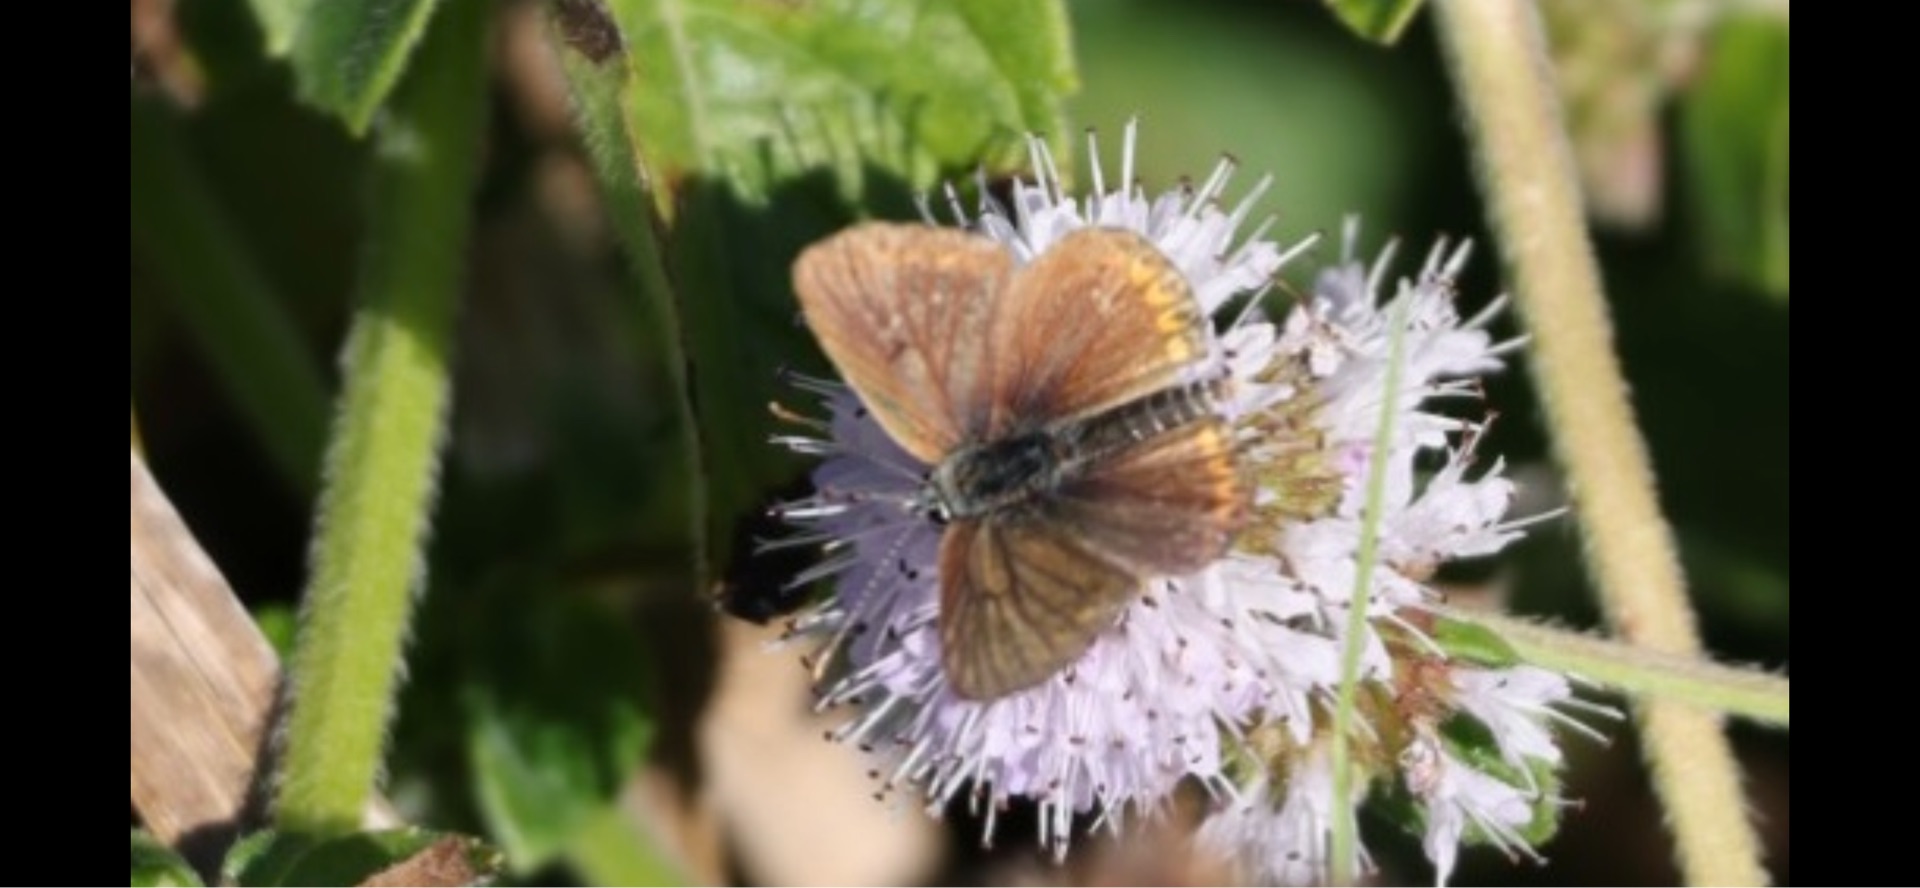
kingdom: Animalia
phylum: Arthropoda
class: Insecta
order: Lepidoptera
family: Lycaenidae
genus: Aricia
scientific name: Aricia agestis
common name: Rødplettet blåfugl
